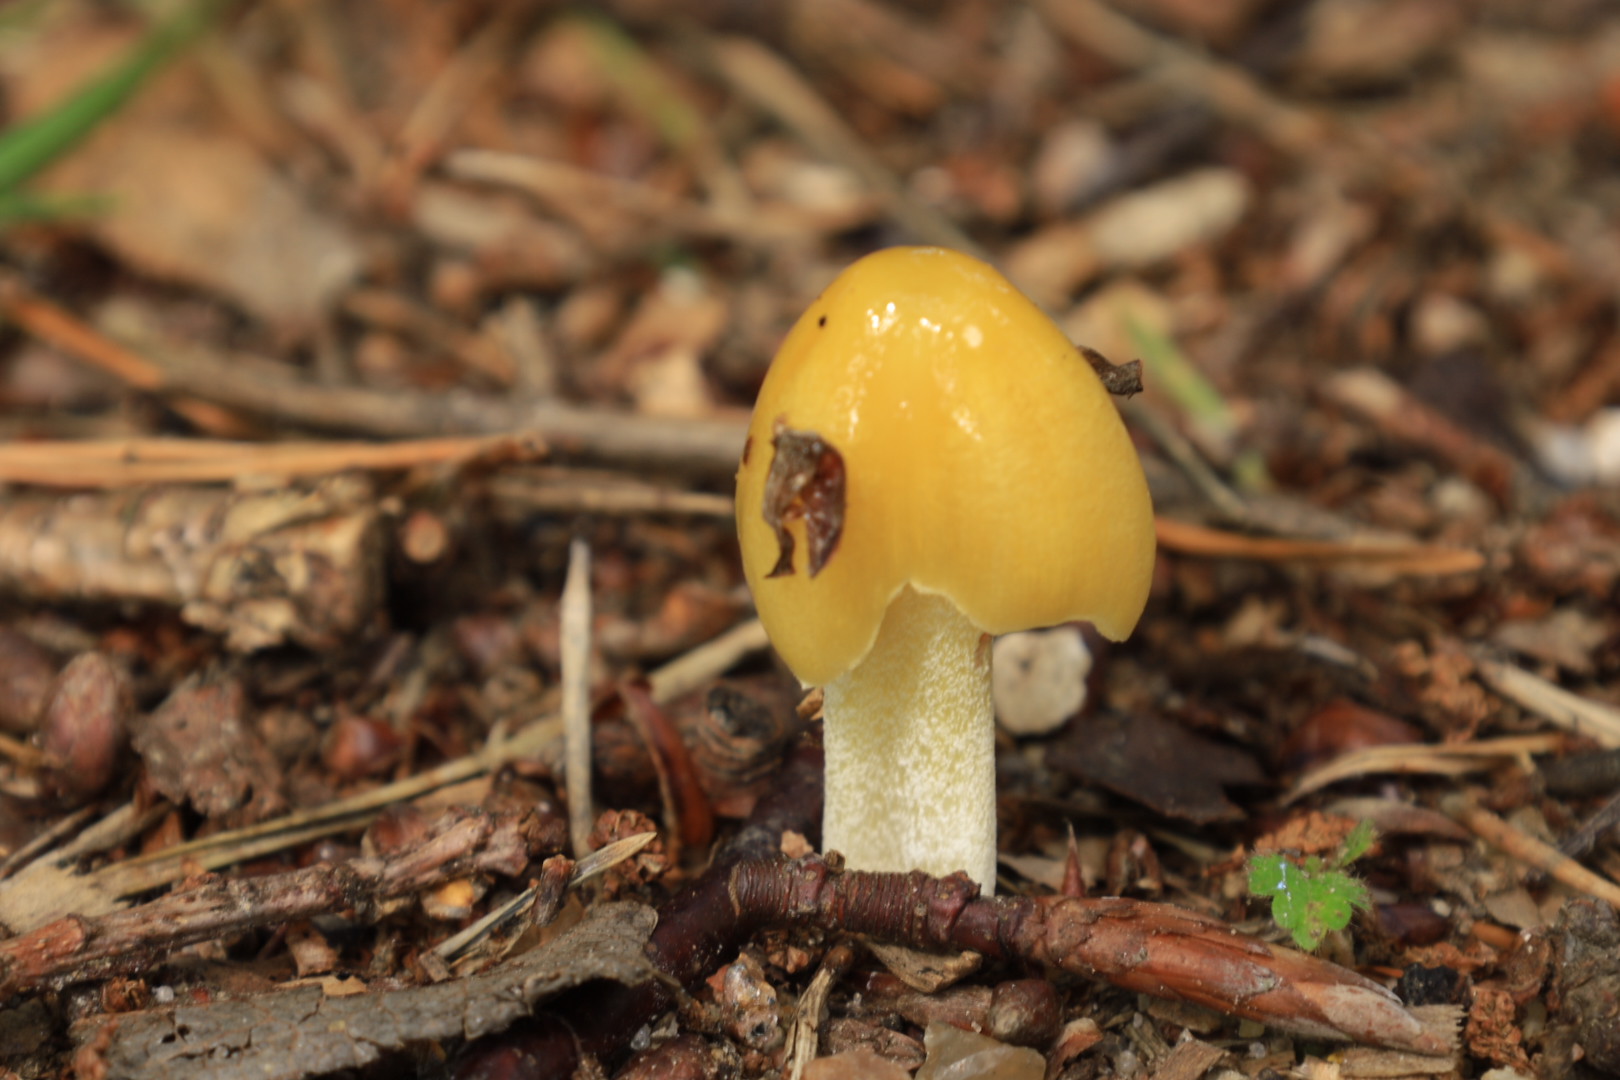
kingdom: Fungi
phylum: Basidiomycota
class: Agaricomycetes
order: Agaricales
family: Bolbitiaceae
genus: Bolbitius
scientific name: Bolbitius titubans
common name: almindelig gulhat
